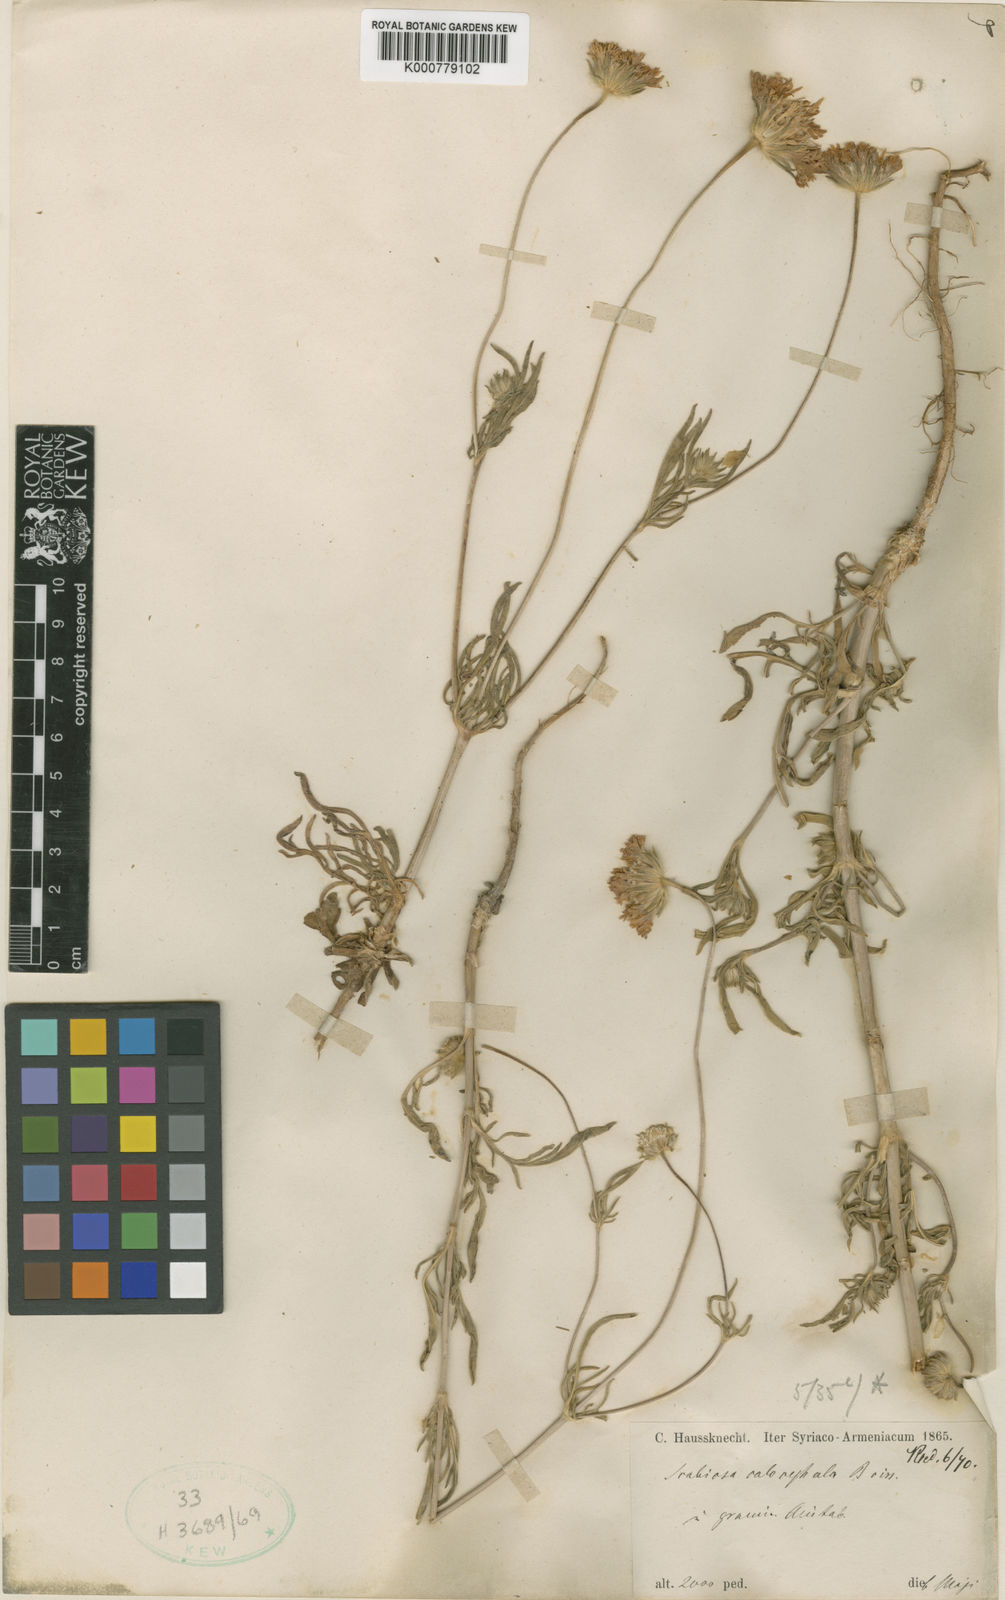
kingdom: Plantae
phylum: Tracheophyta
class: Magnoliopsida
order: Dipsacales
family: Caprifoliaceae
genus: Lomelosia
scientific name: Lomelosia palaestina
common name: Balkan pincushions
